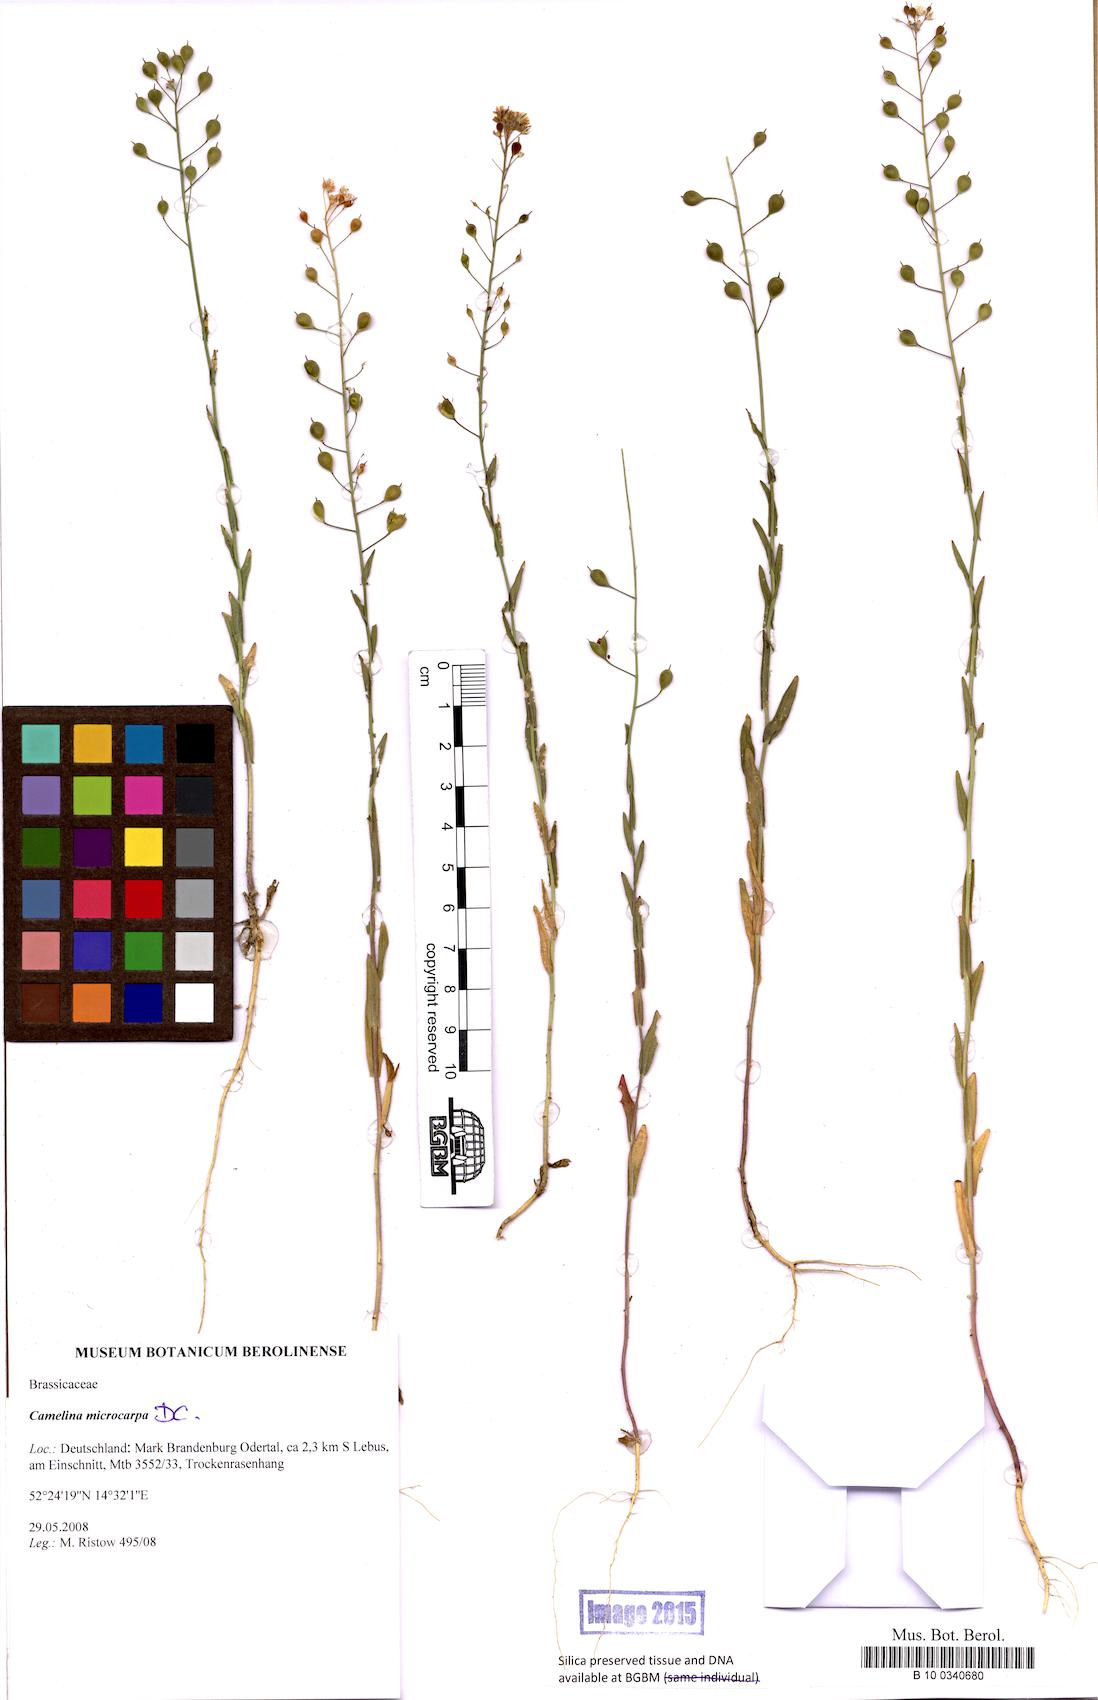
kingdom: Plantae
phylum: Tracheophyta
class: Magnoliopsida
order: Brassicales
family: Brassicaceae
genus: Camelina
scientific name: Camelina microcarpa
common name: Lesser gold-of-pleasure
